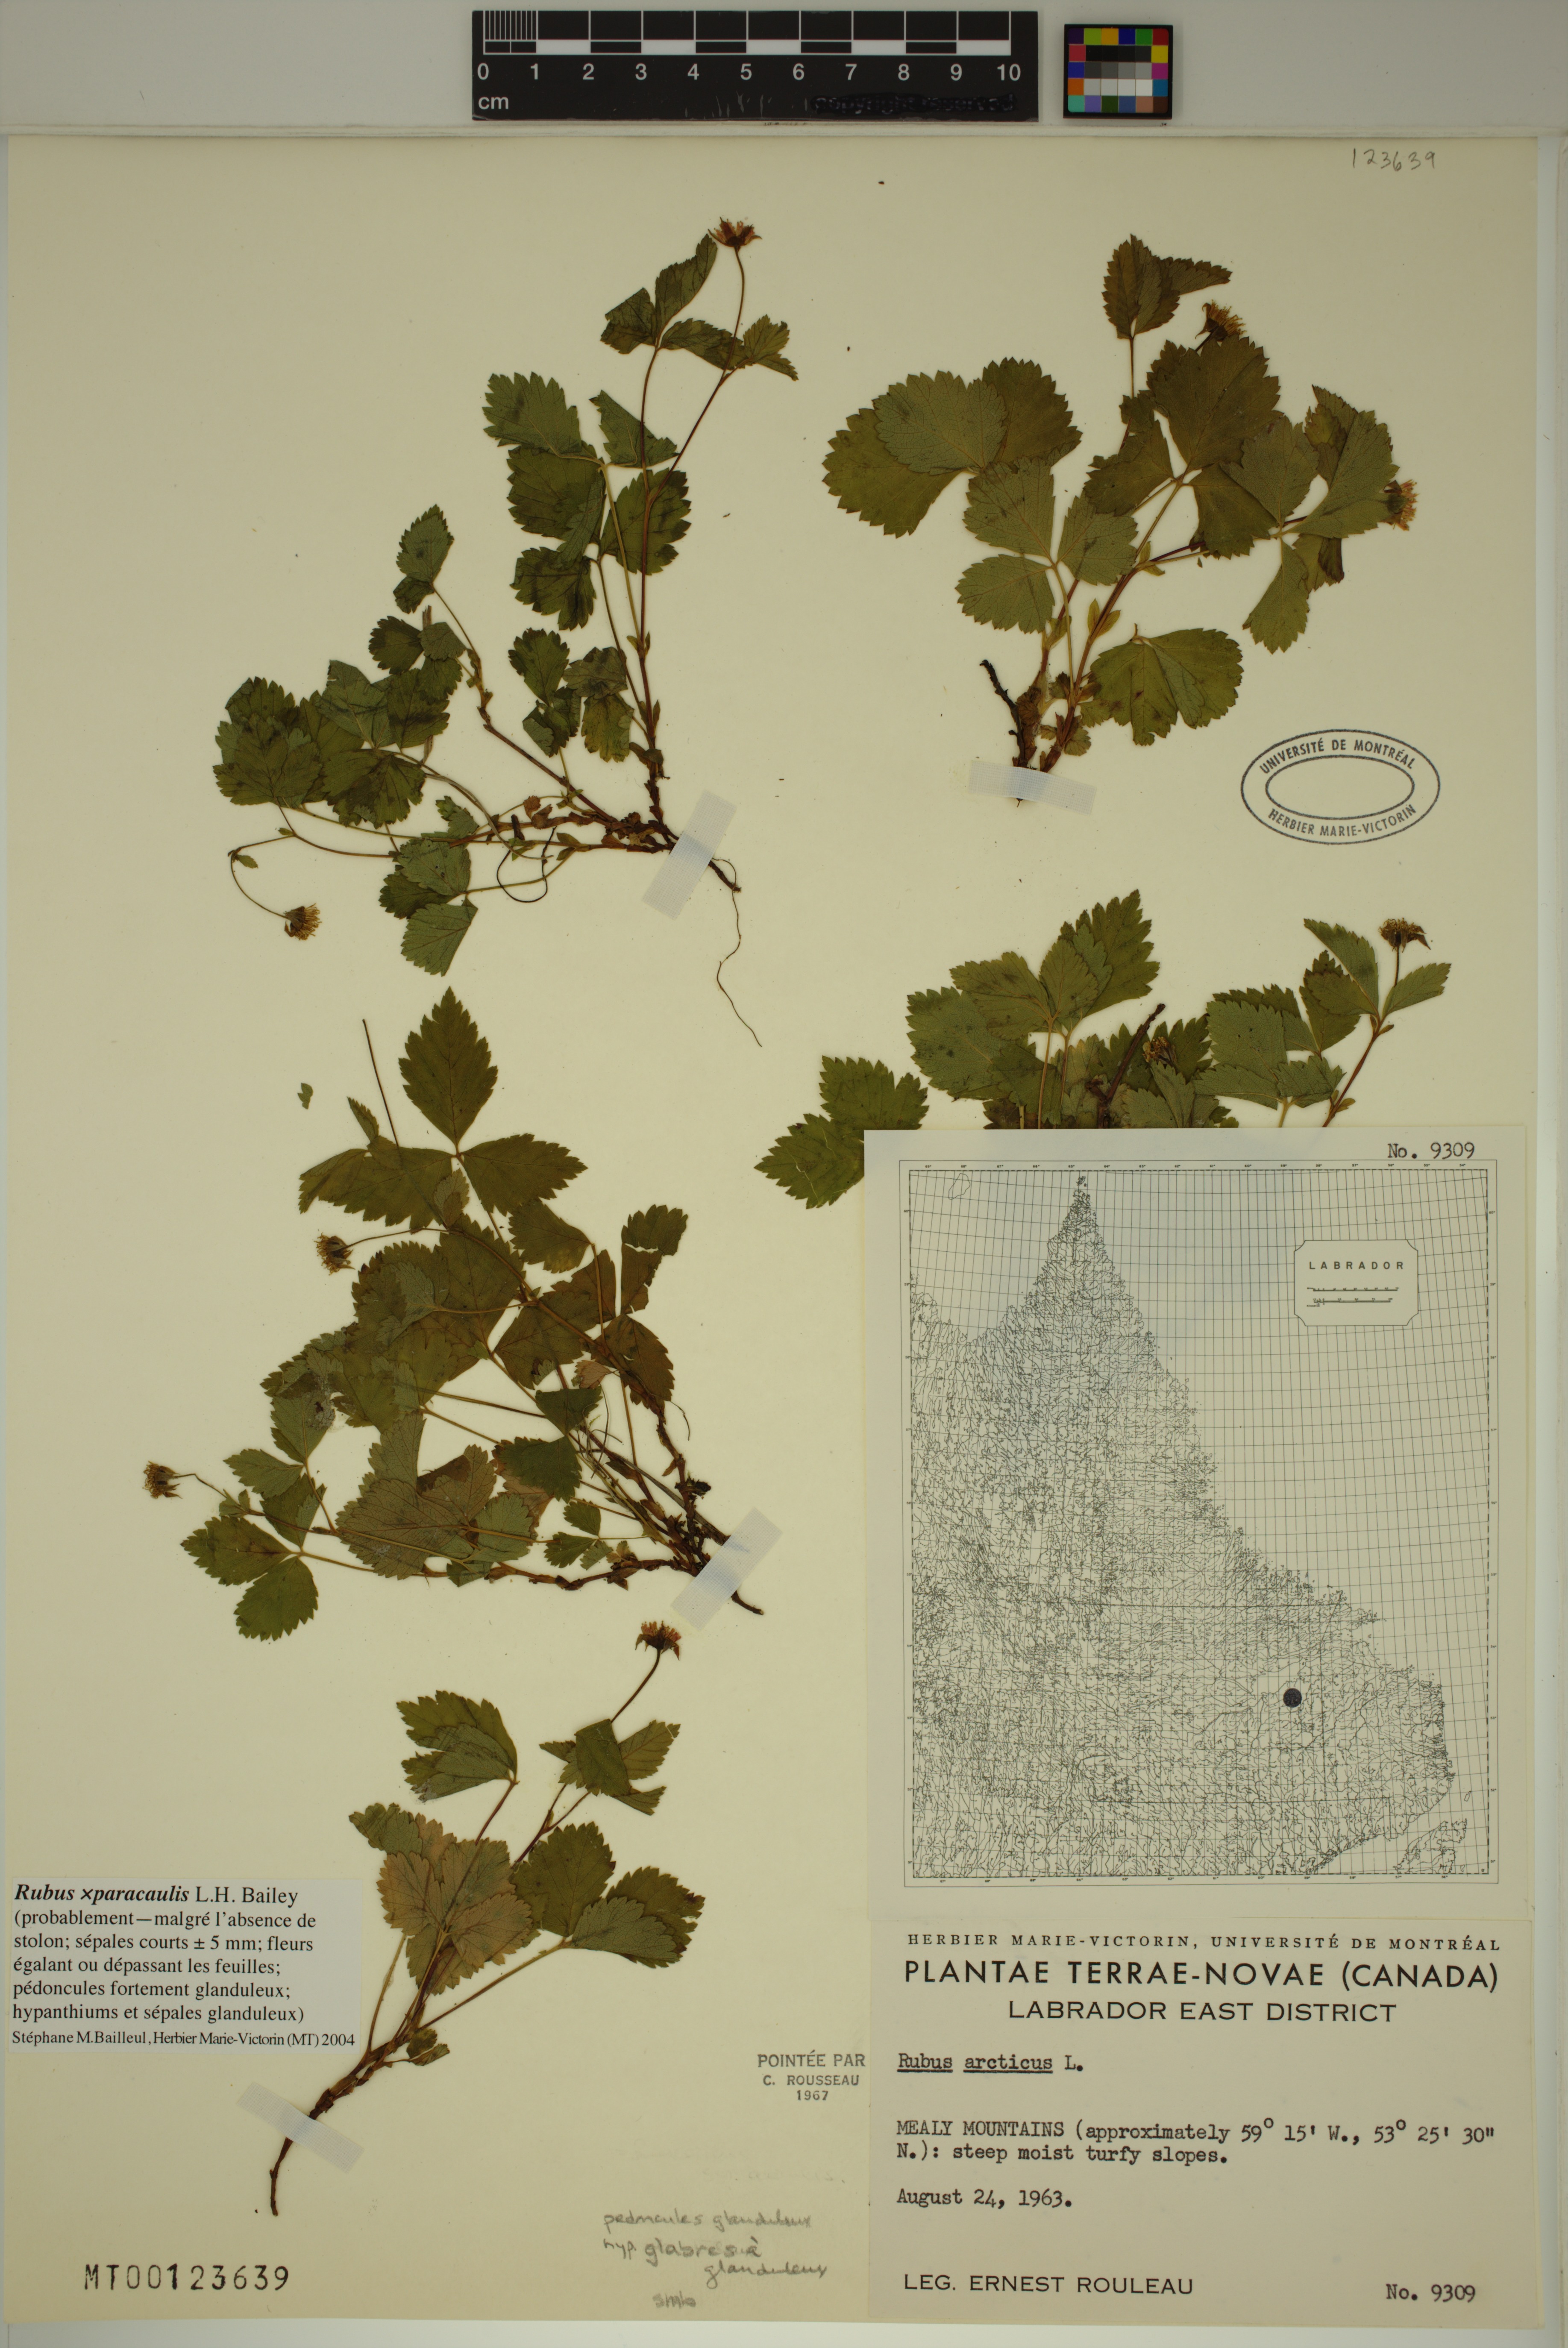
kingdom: Plantae
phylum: Tracheophyta
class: Magnoliopsida
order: Rosales
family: Rosaceae
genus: Rubus
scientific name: Rubus paracaulis
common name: Dwarf white-flowered raspberry
